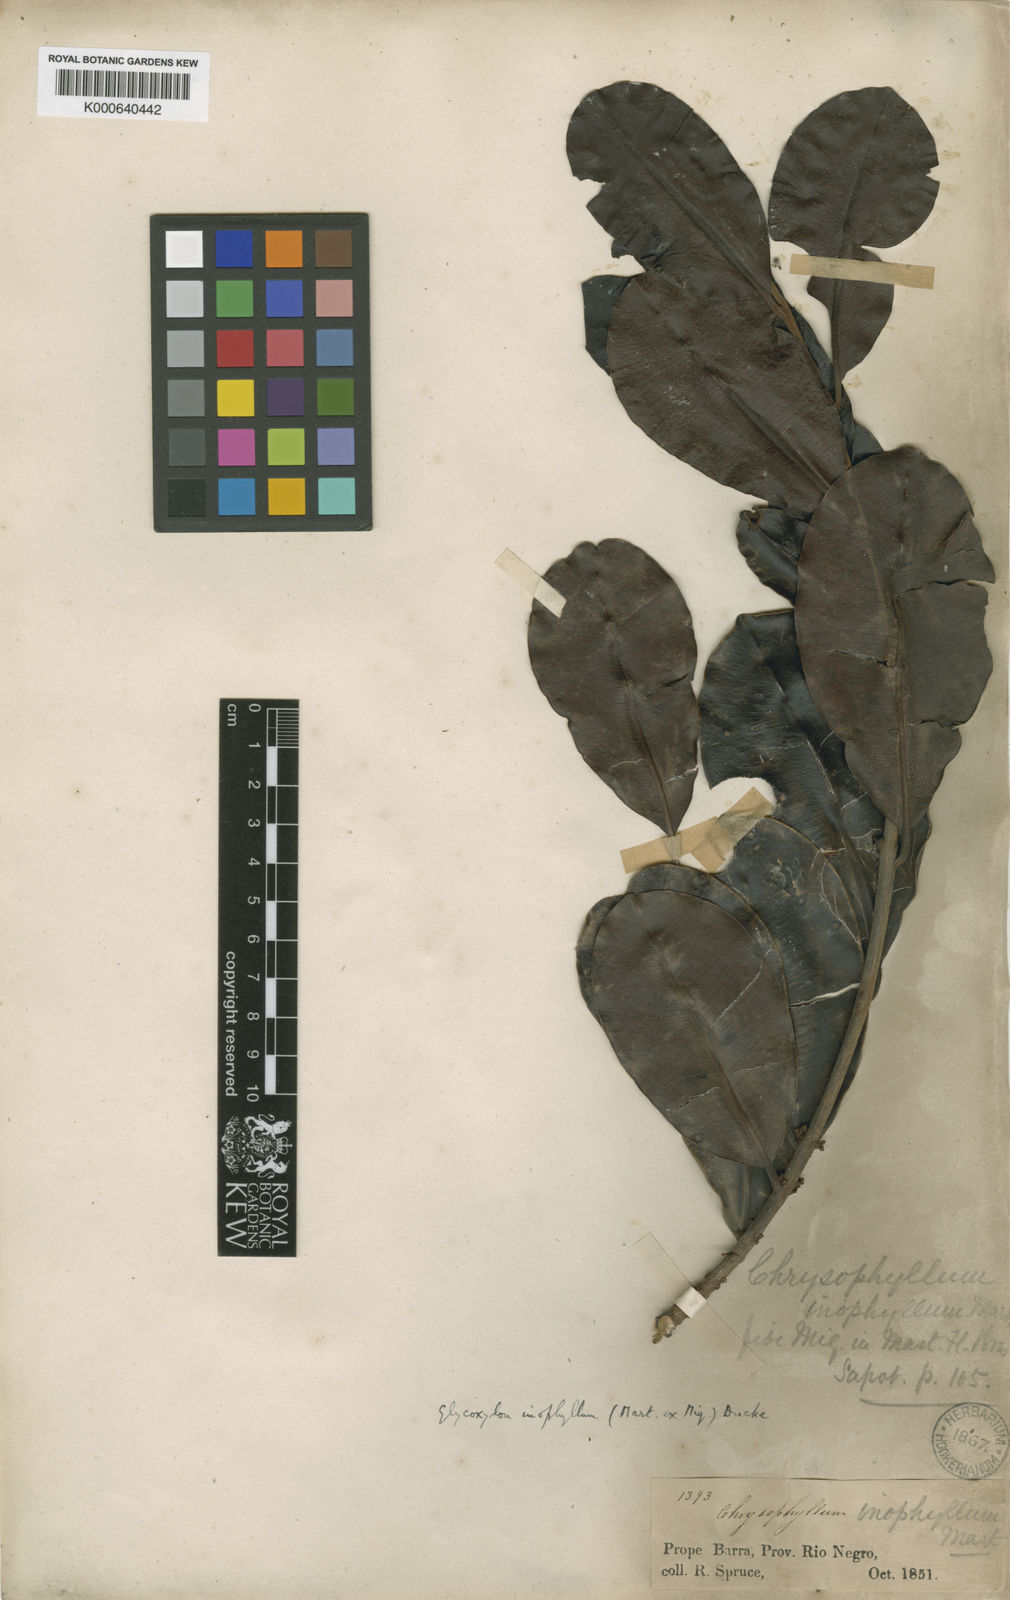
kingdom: Plantae
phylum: Tracheophyta
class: Magnoliopsida
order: Ericales
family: Sapotaceae
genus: Pradosia
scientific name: Pradosia schomburgkiana
